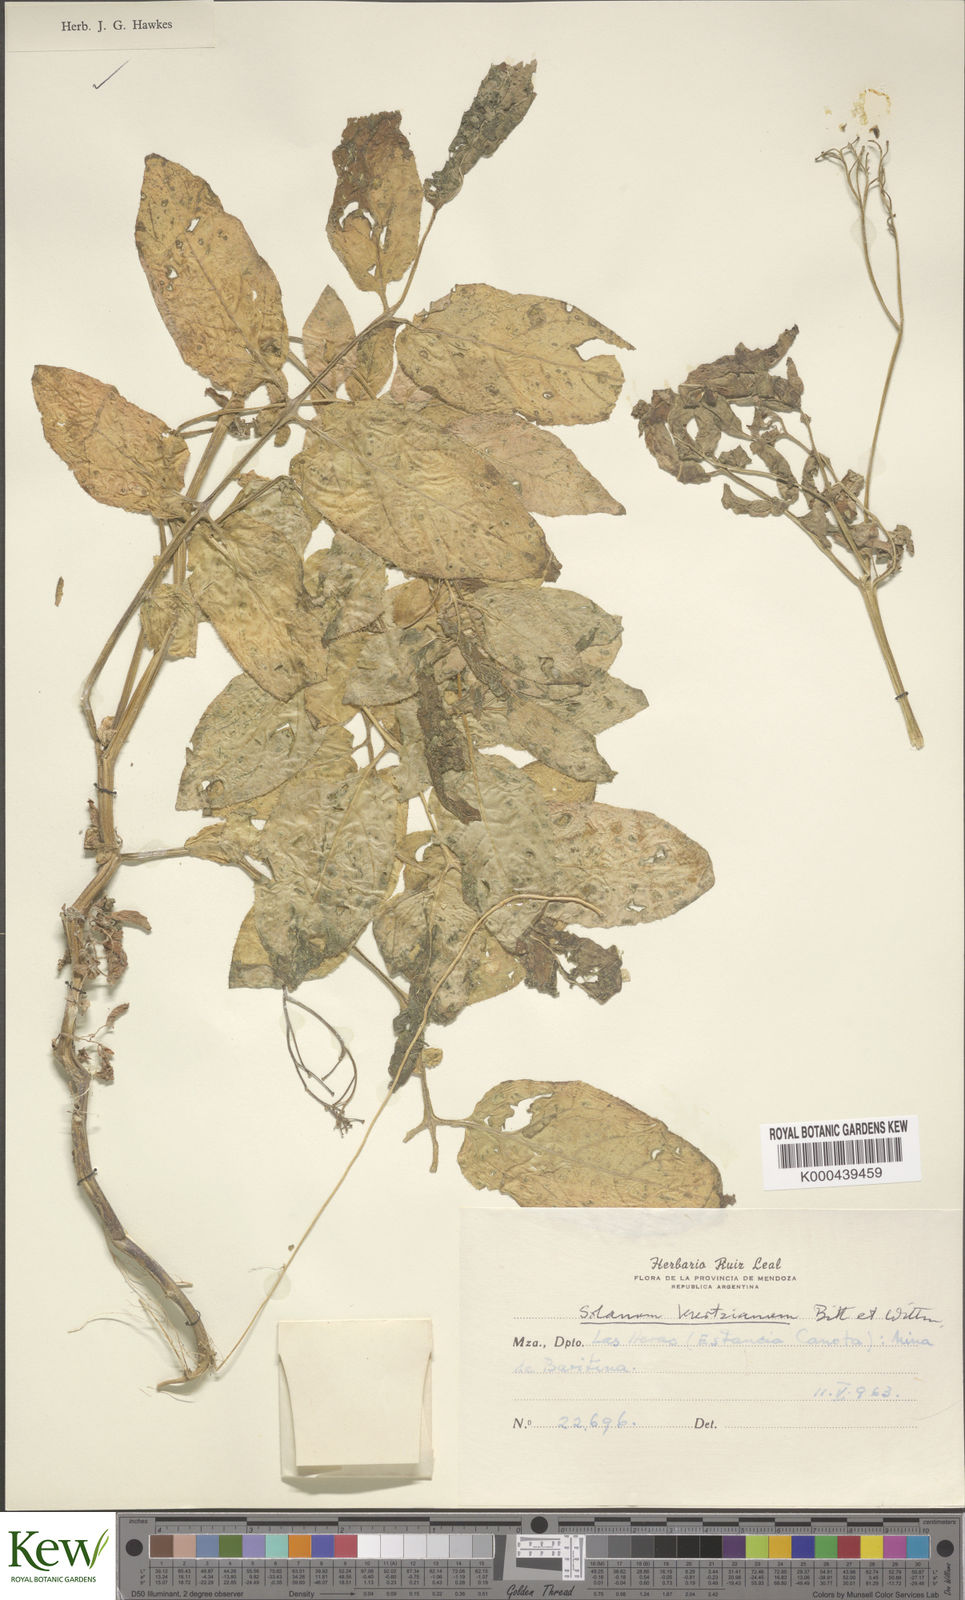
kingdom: Plantae
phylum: Tracheophyta
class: Magnoliopsida
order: Solanales
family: Solanaceae
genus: Solanum
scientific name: Solanum kurtzianum
